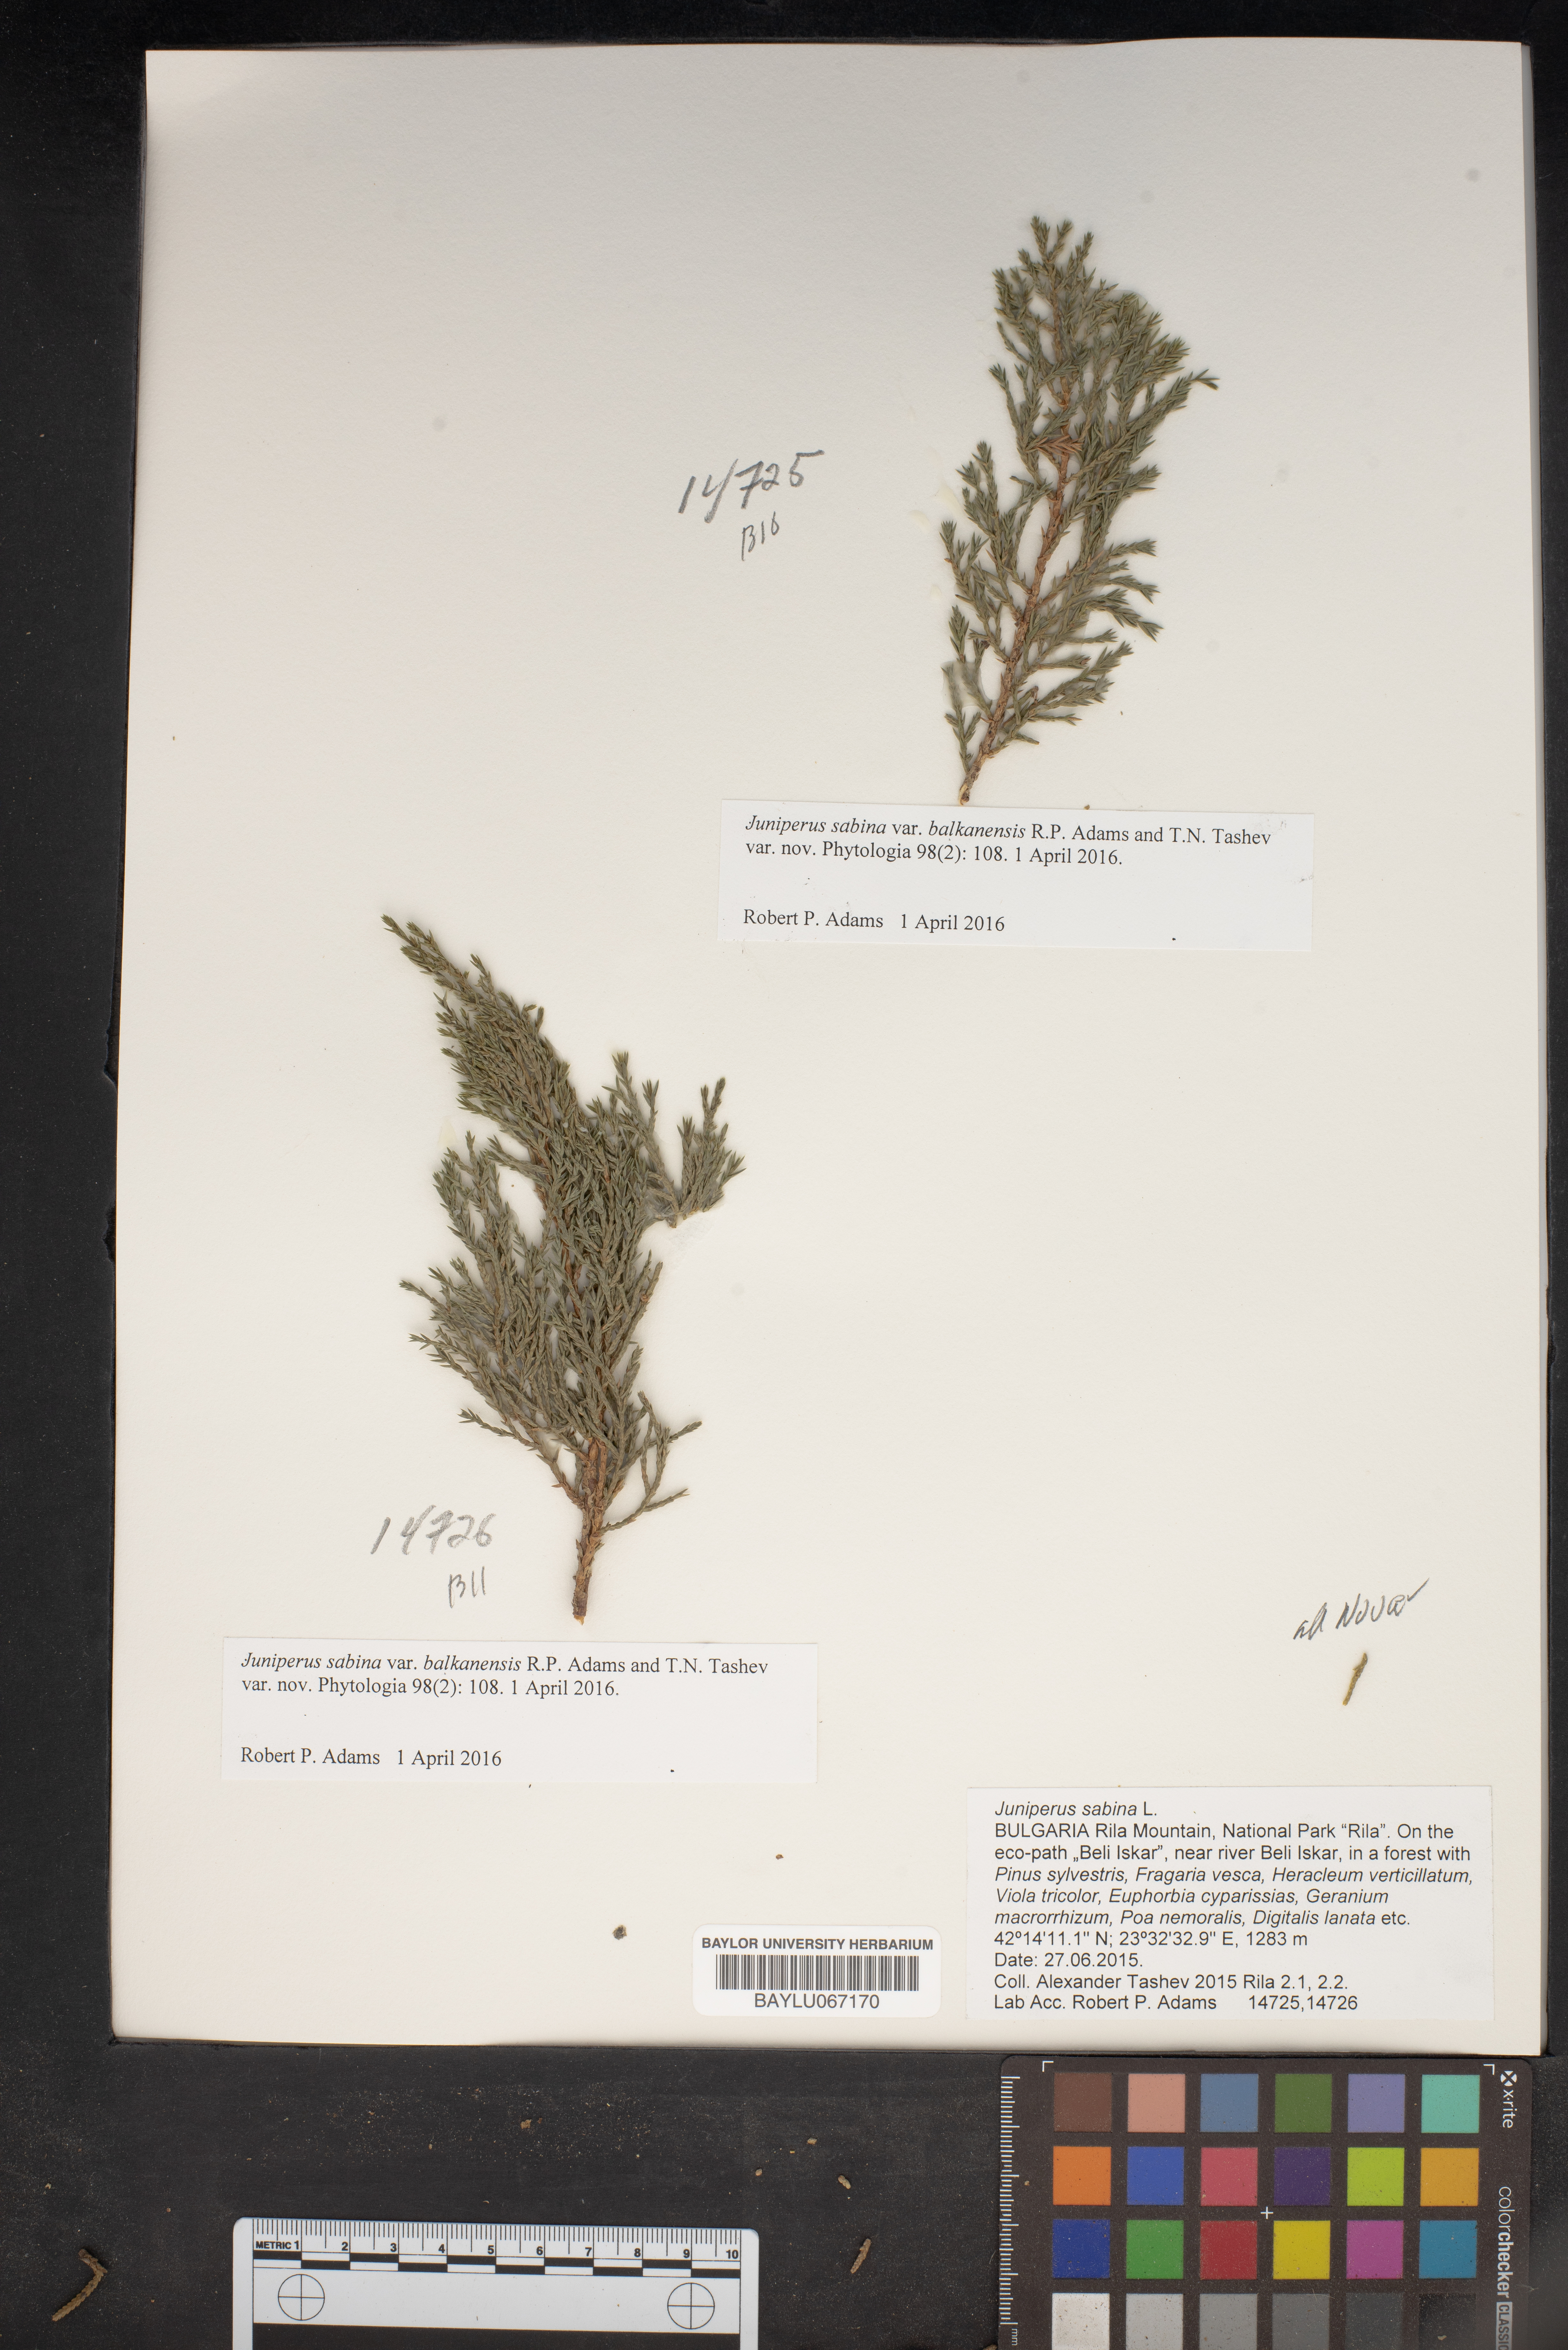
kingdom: Plantae
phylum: Tracheophyta
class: Pinopsida
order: Pinales
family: Cupressaceae
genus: Juniperus
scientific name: Juniperus sabina
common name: Savin
